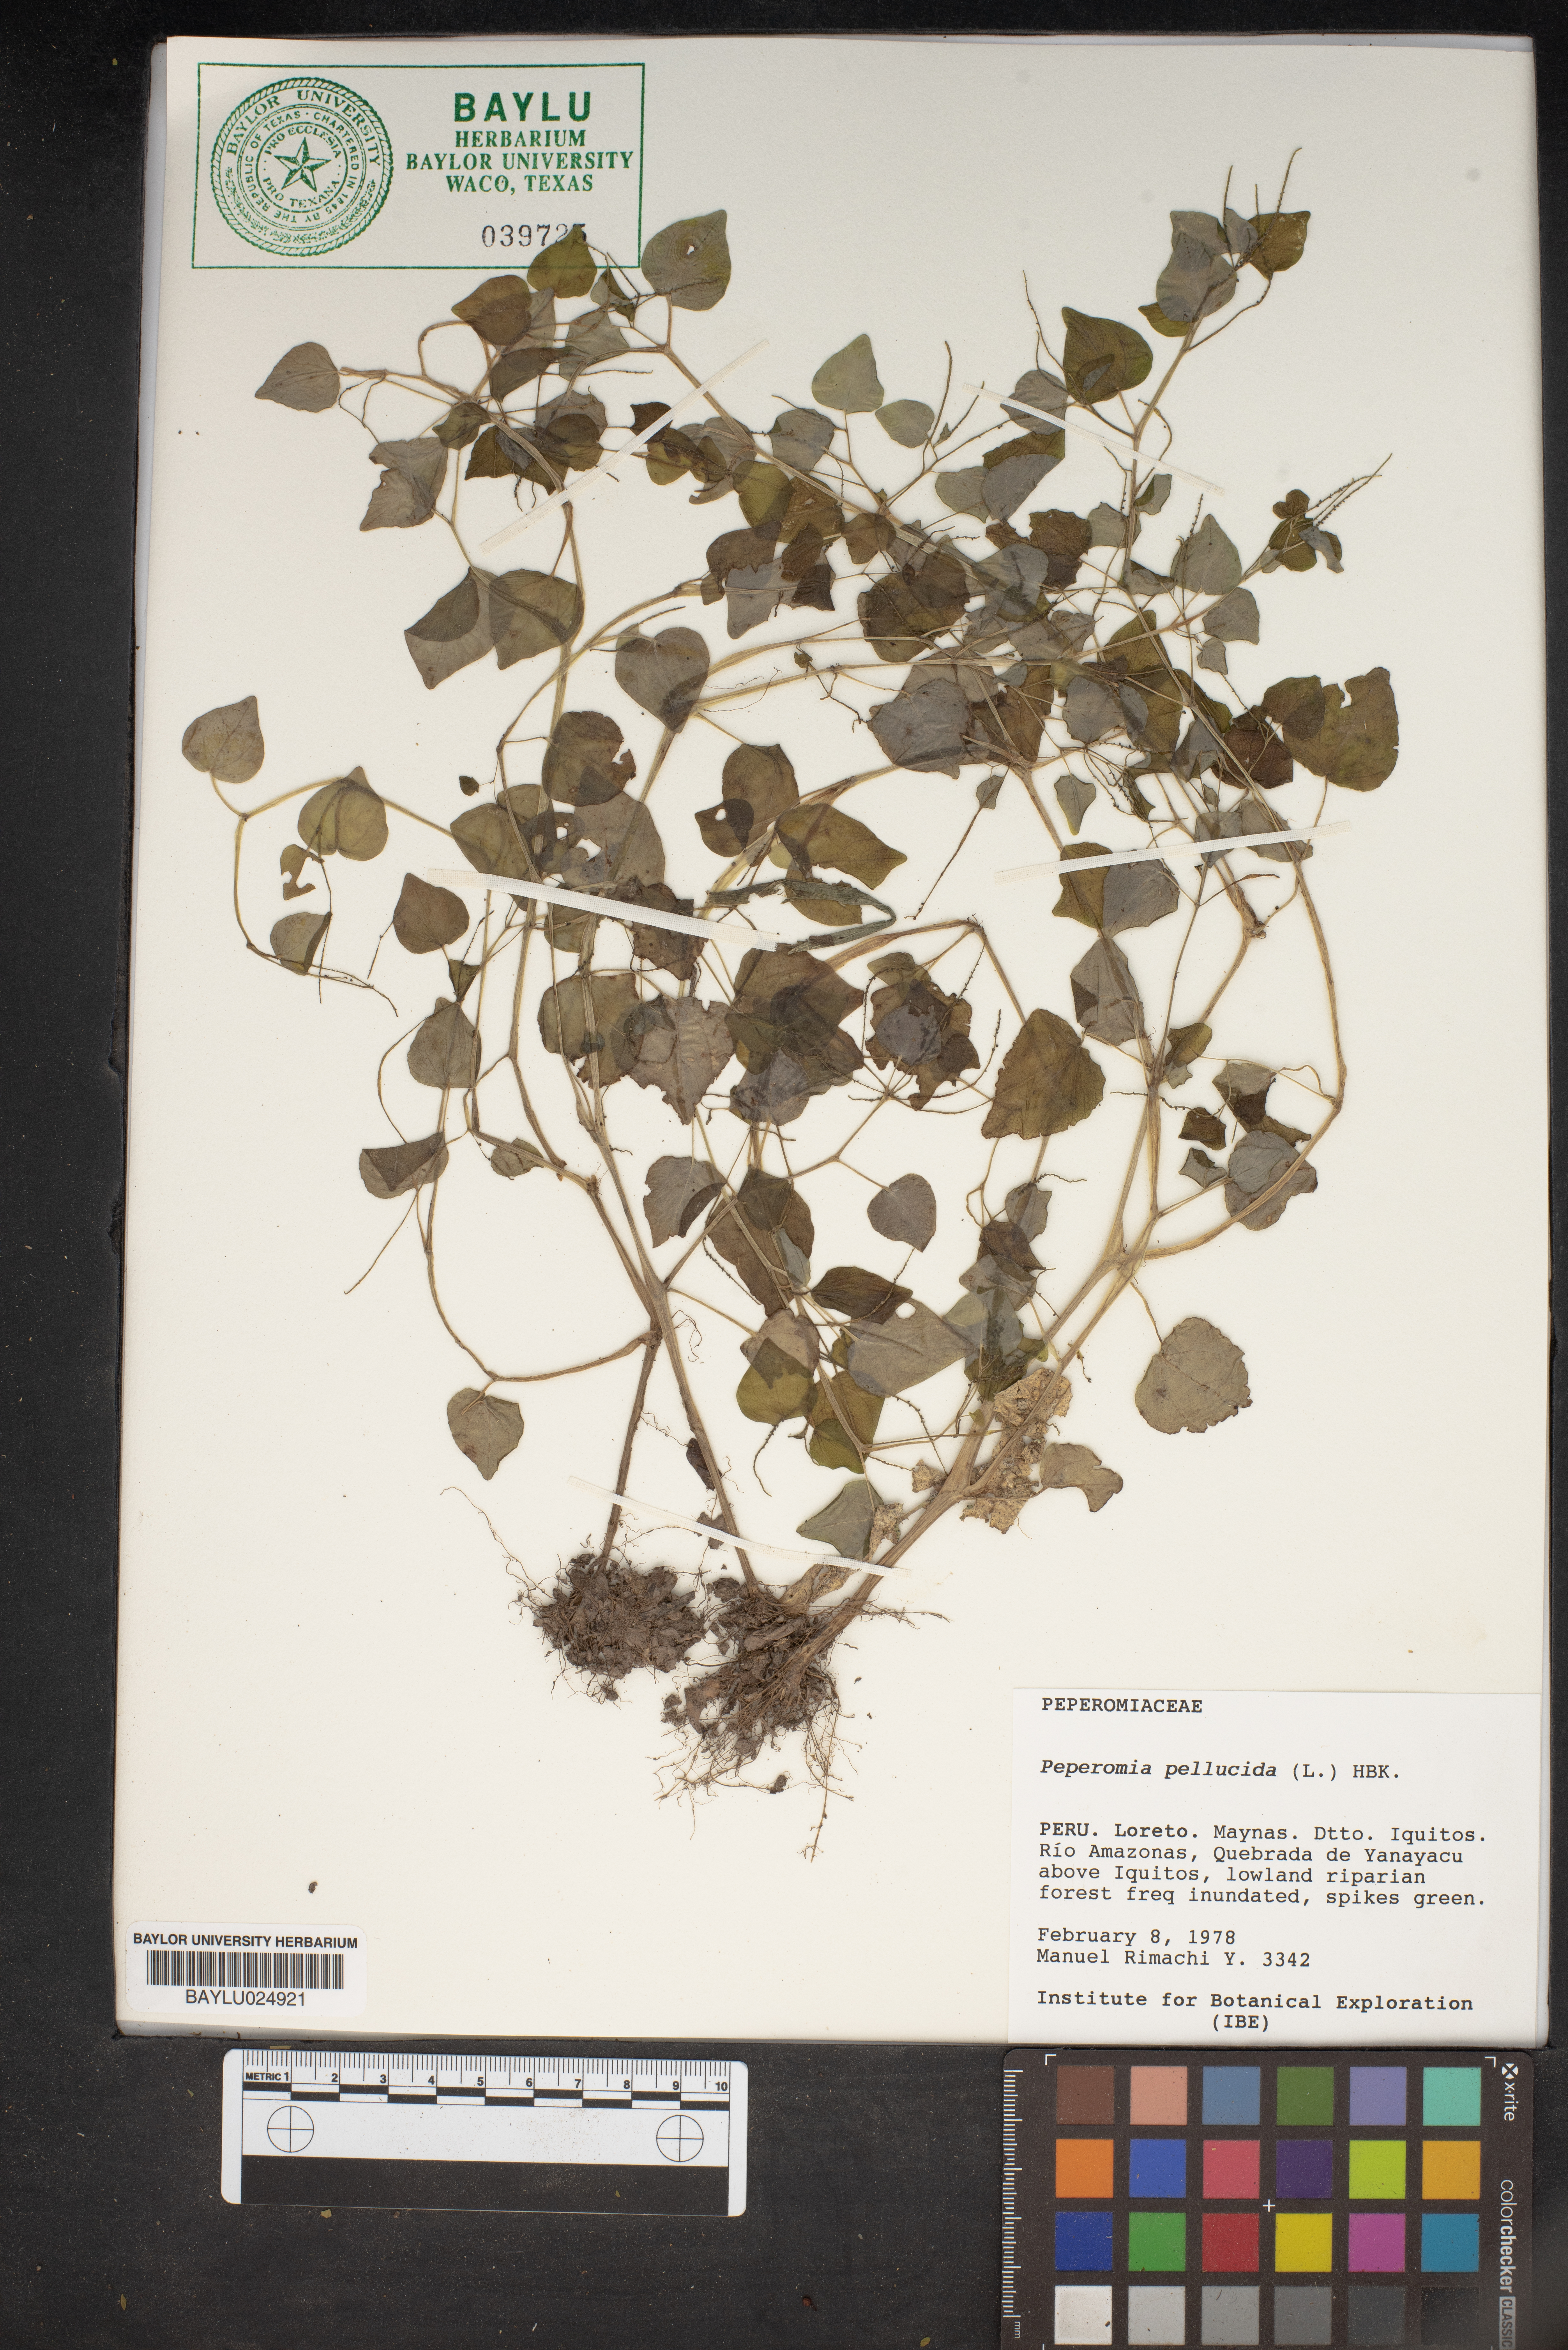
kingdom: Plantae
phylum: Tracheophyta
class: Magnoliopsida
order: Piperales
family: Piperaceae
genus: Peperomia
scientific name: Peperomia pellucida
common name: Man to man
